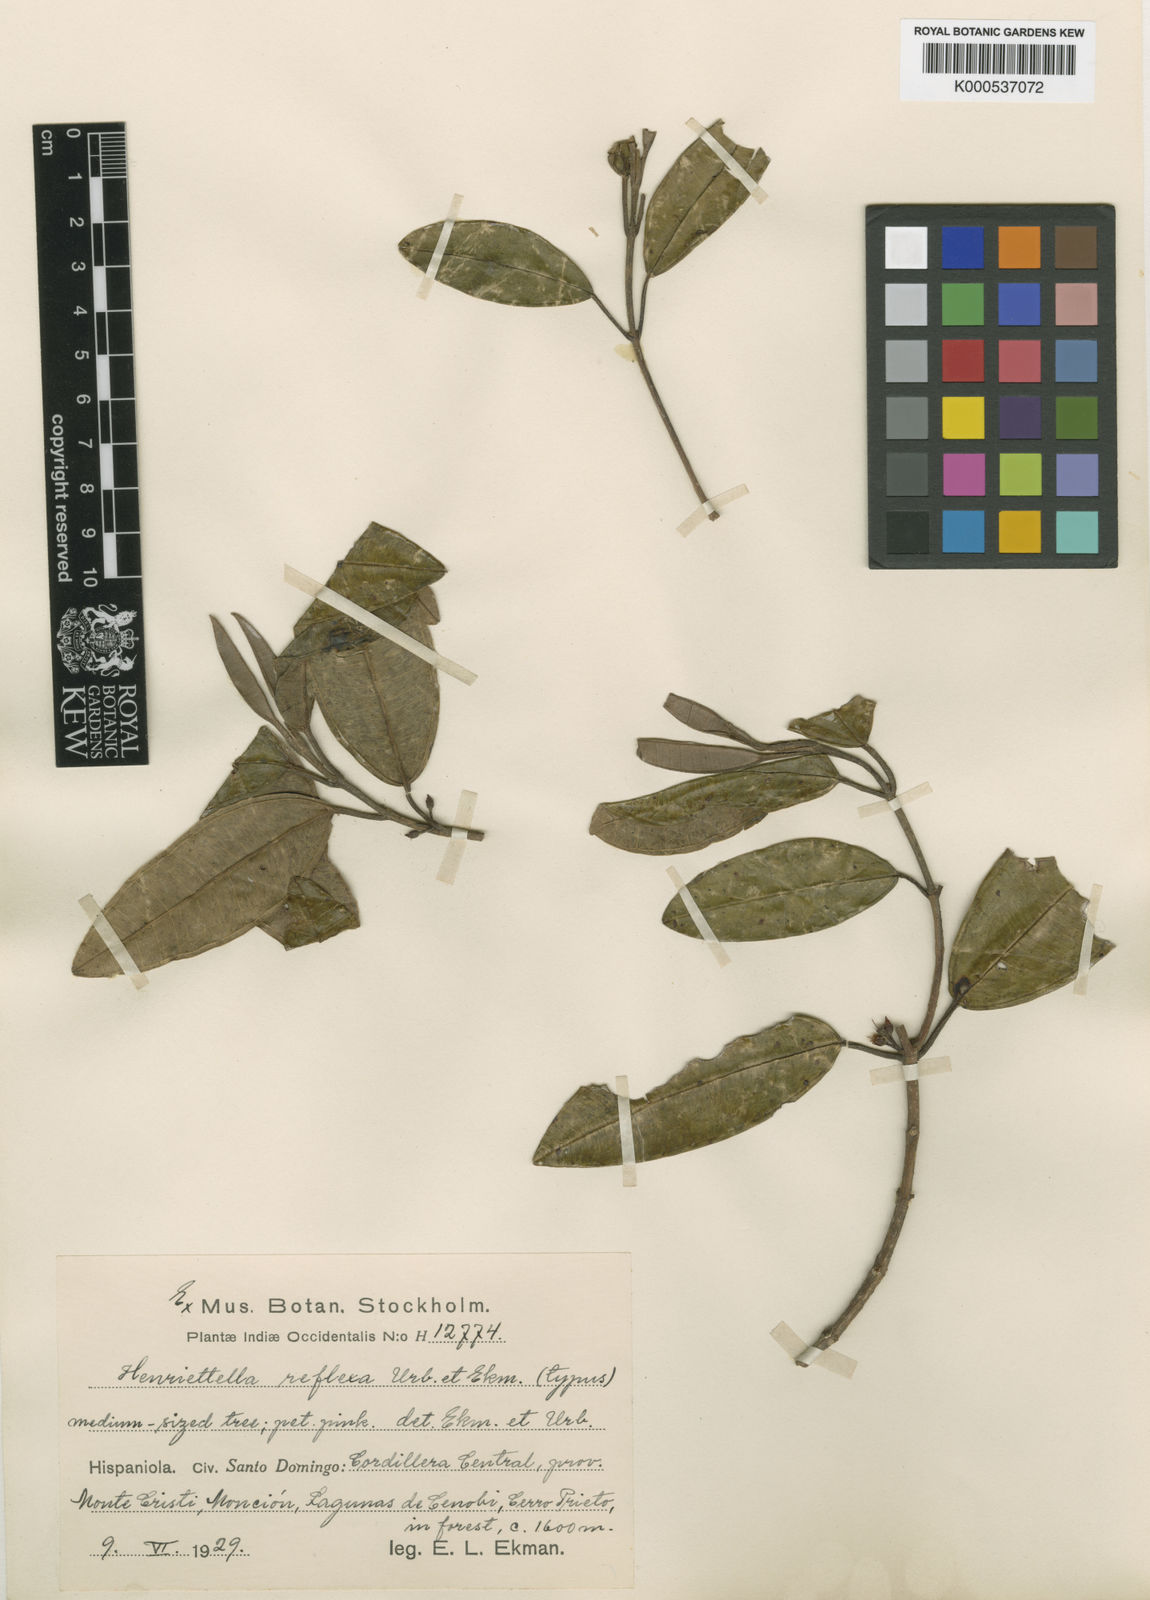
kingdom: Plantae
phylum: Tracheophyta
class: Magnoliopsida
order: Myrtales
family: Melastomataceae
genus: Henriettea
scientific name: Henriettea reflexa
